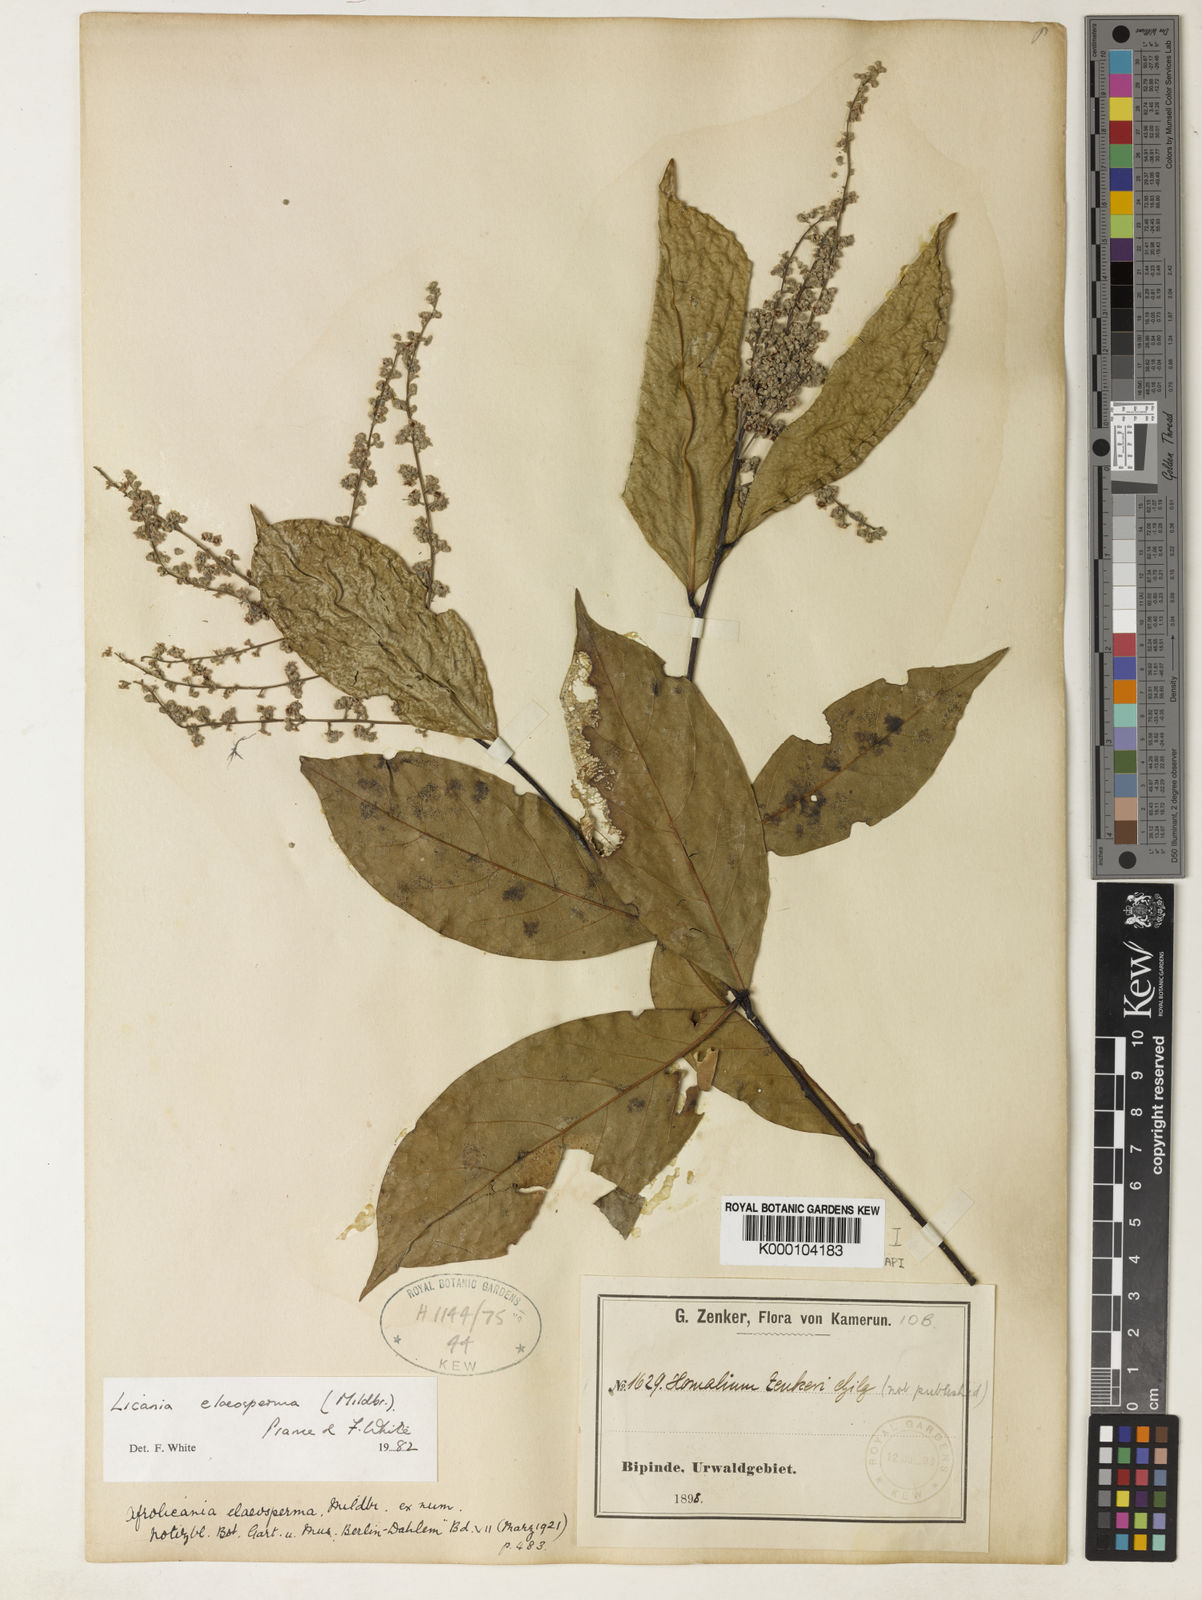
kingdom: Plantae
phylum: Tracheophyta
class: Magnoliopsida
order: Malpighiales
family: Chrysobalanaceae
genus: Afrolicania
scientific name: Afrolicania elaeosperma
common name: Nikko
